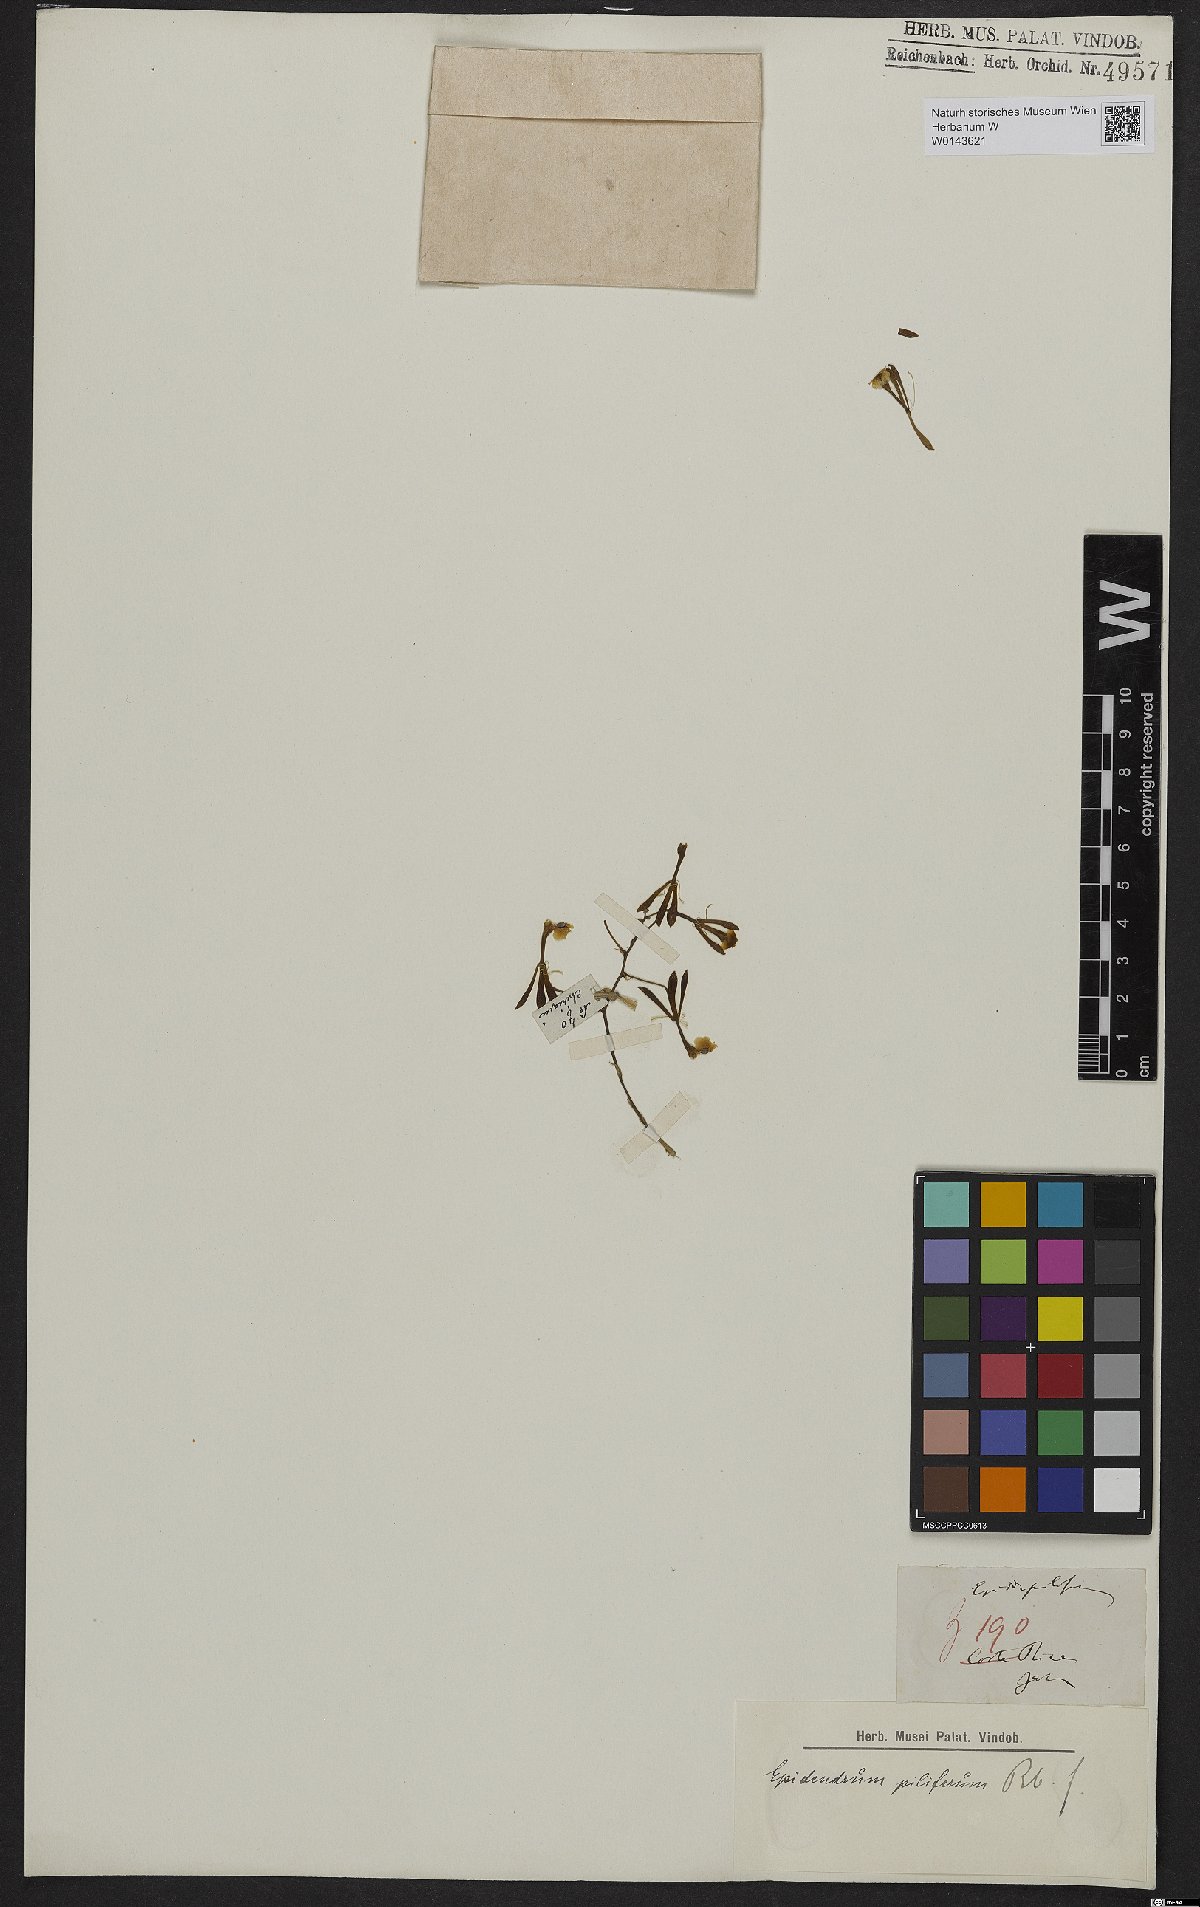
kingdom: Plantae
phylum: Tracheophyta
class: Liliopsida
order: Asparagales
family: Orchidaceae
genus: Epidendrum
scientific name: Epidendrum piliferum
